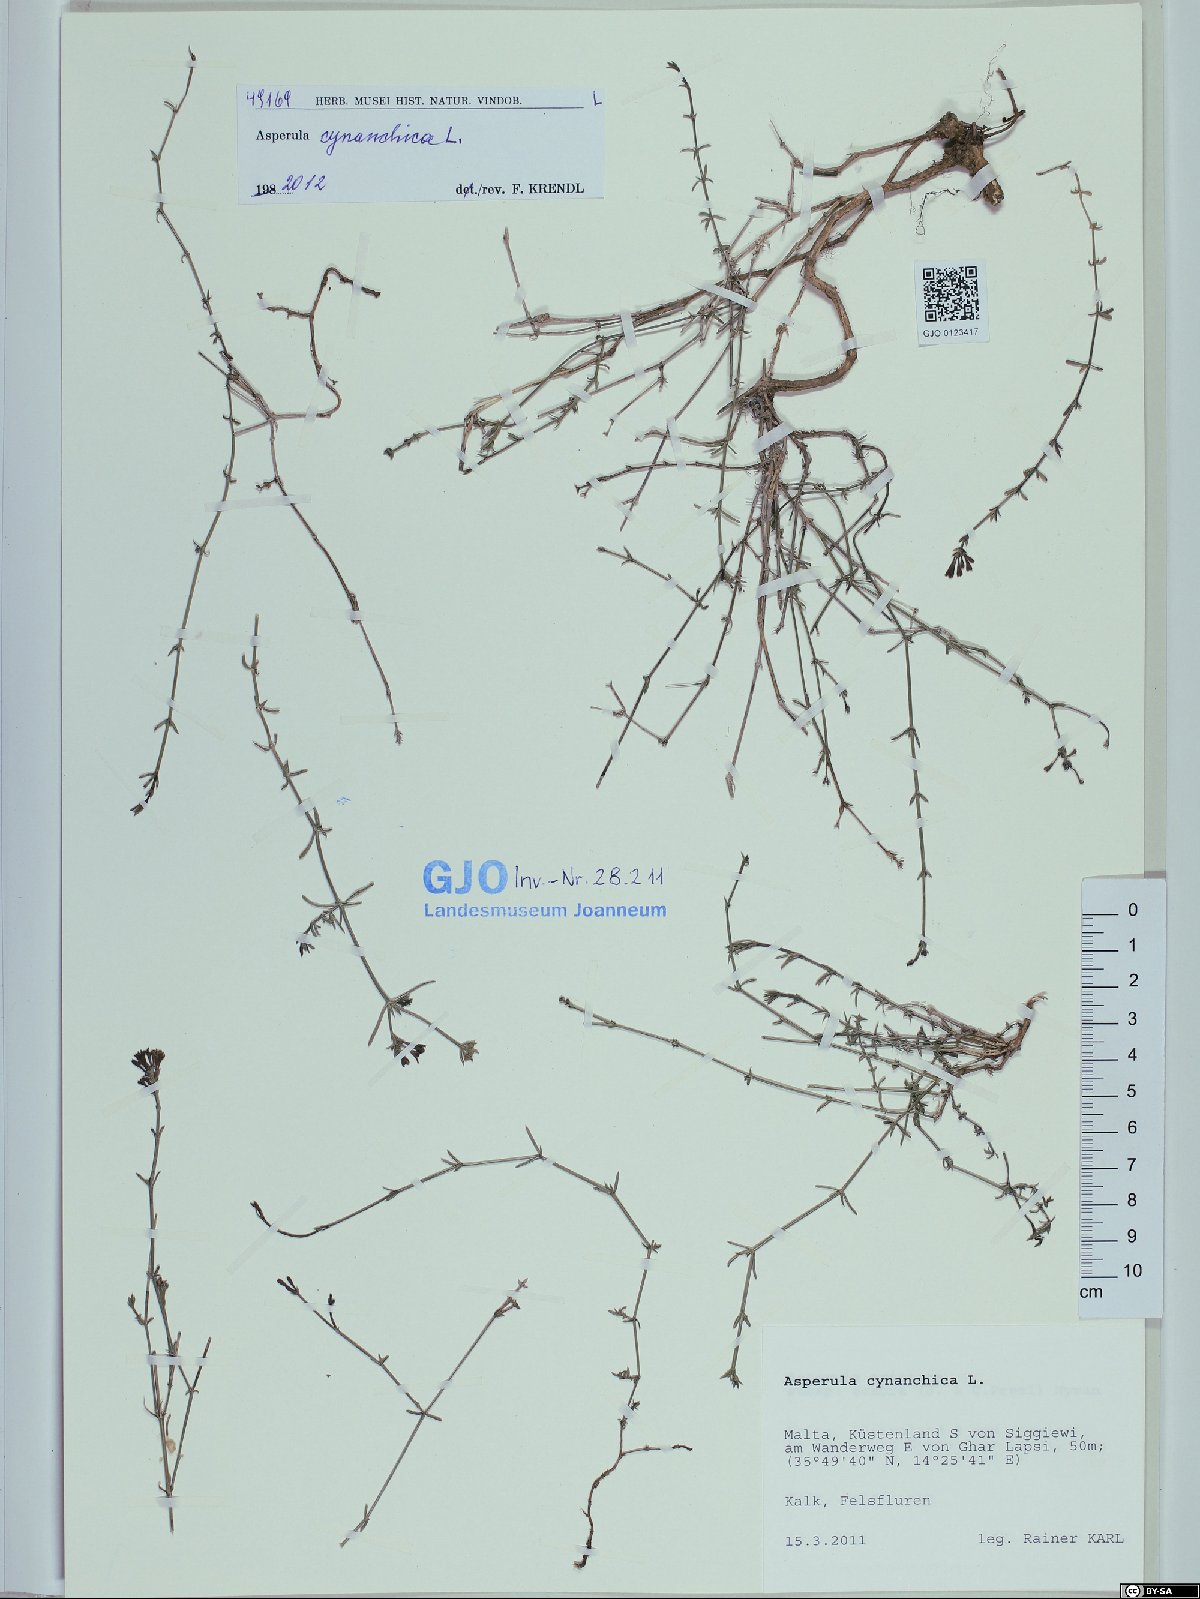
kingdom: Plantae
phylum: Tracheophyta
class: Magnoliopsida
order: Gentianales
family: Rubiaceae
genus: Cynanchica
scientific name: Cynanchica pyrenaica
